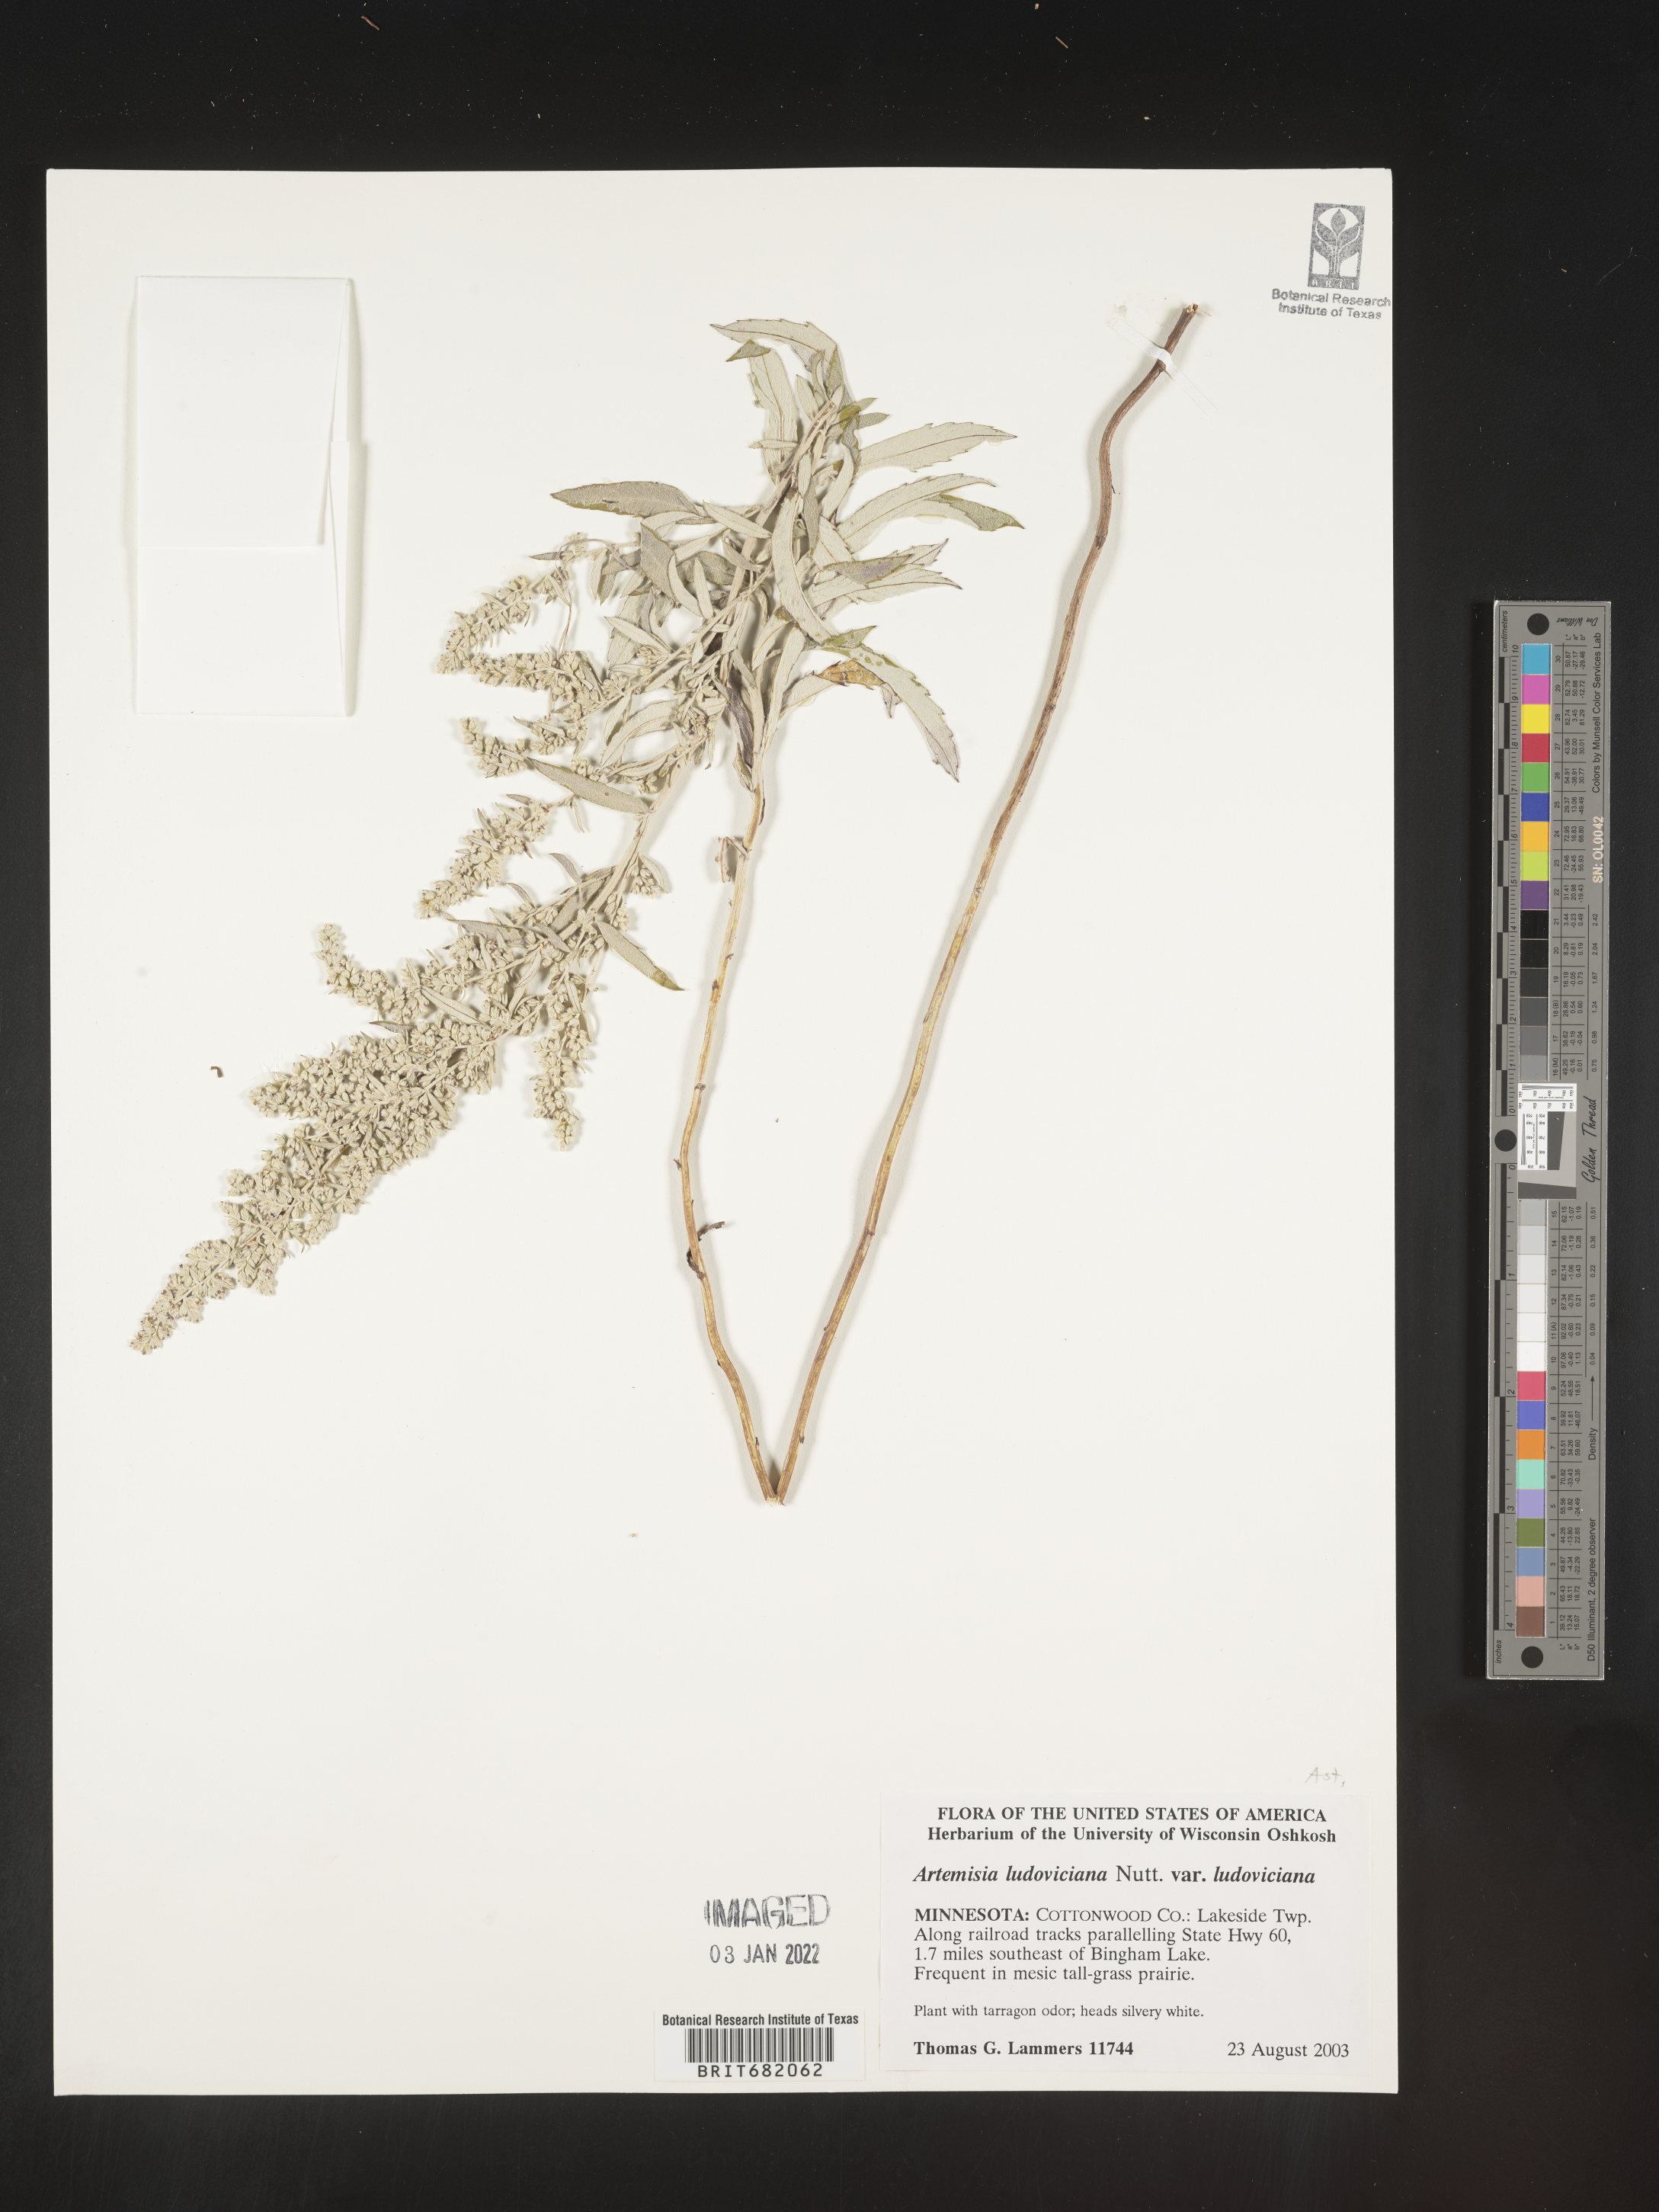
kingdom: Plantae
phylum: Tracheophyta
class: Magnoliopsida
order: Asterales
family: Asteraceae
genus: Artemisia
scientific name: Artemisia ludoviciana
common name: Western mugwort
